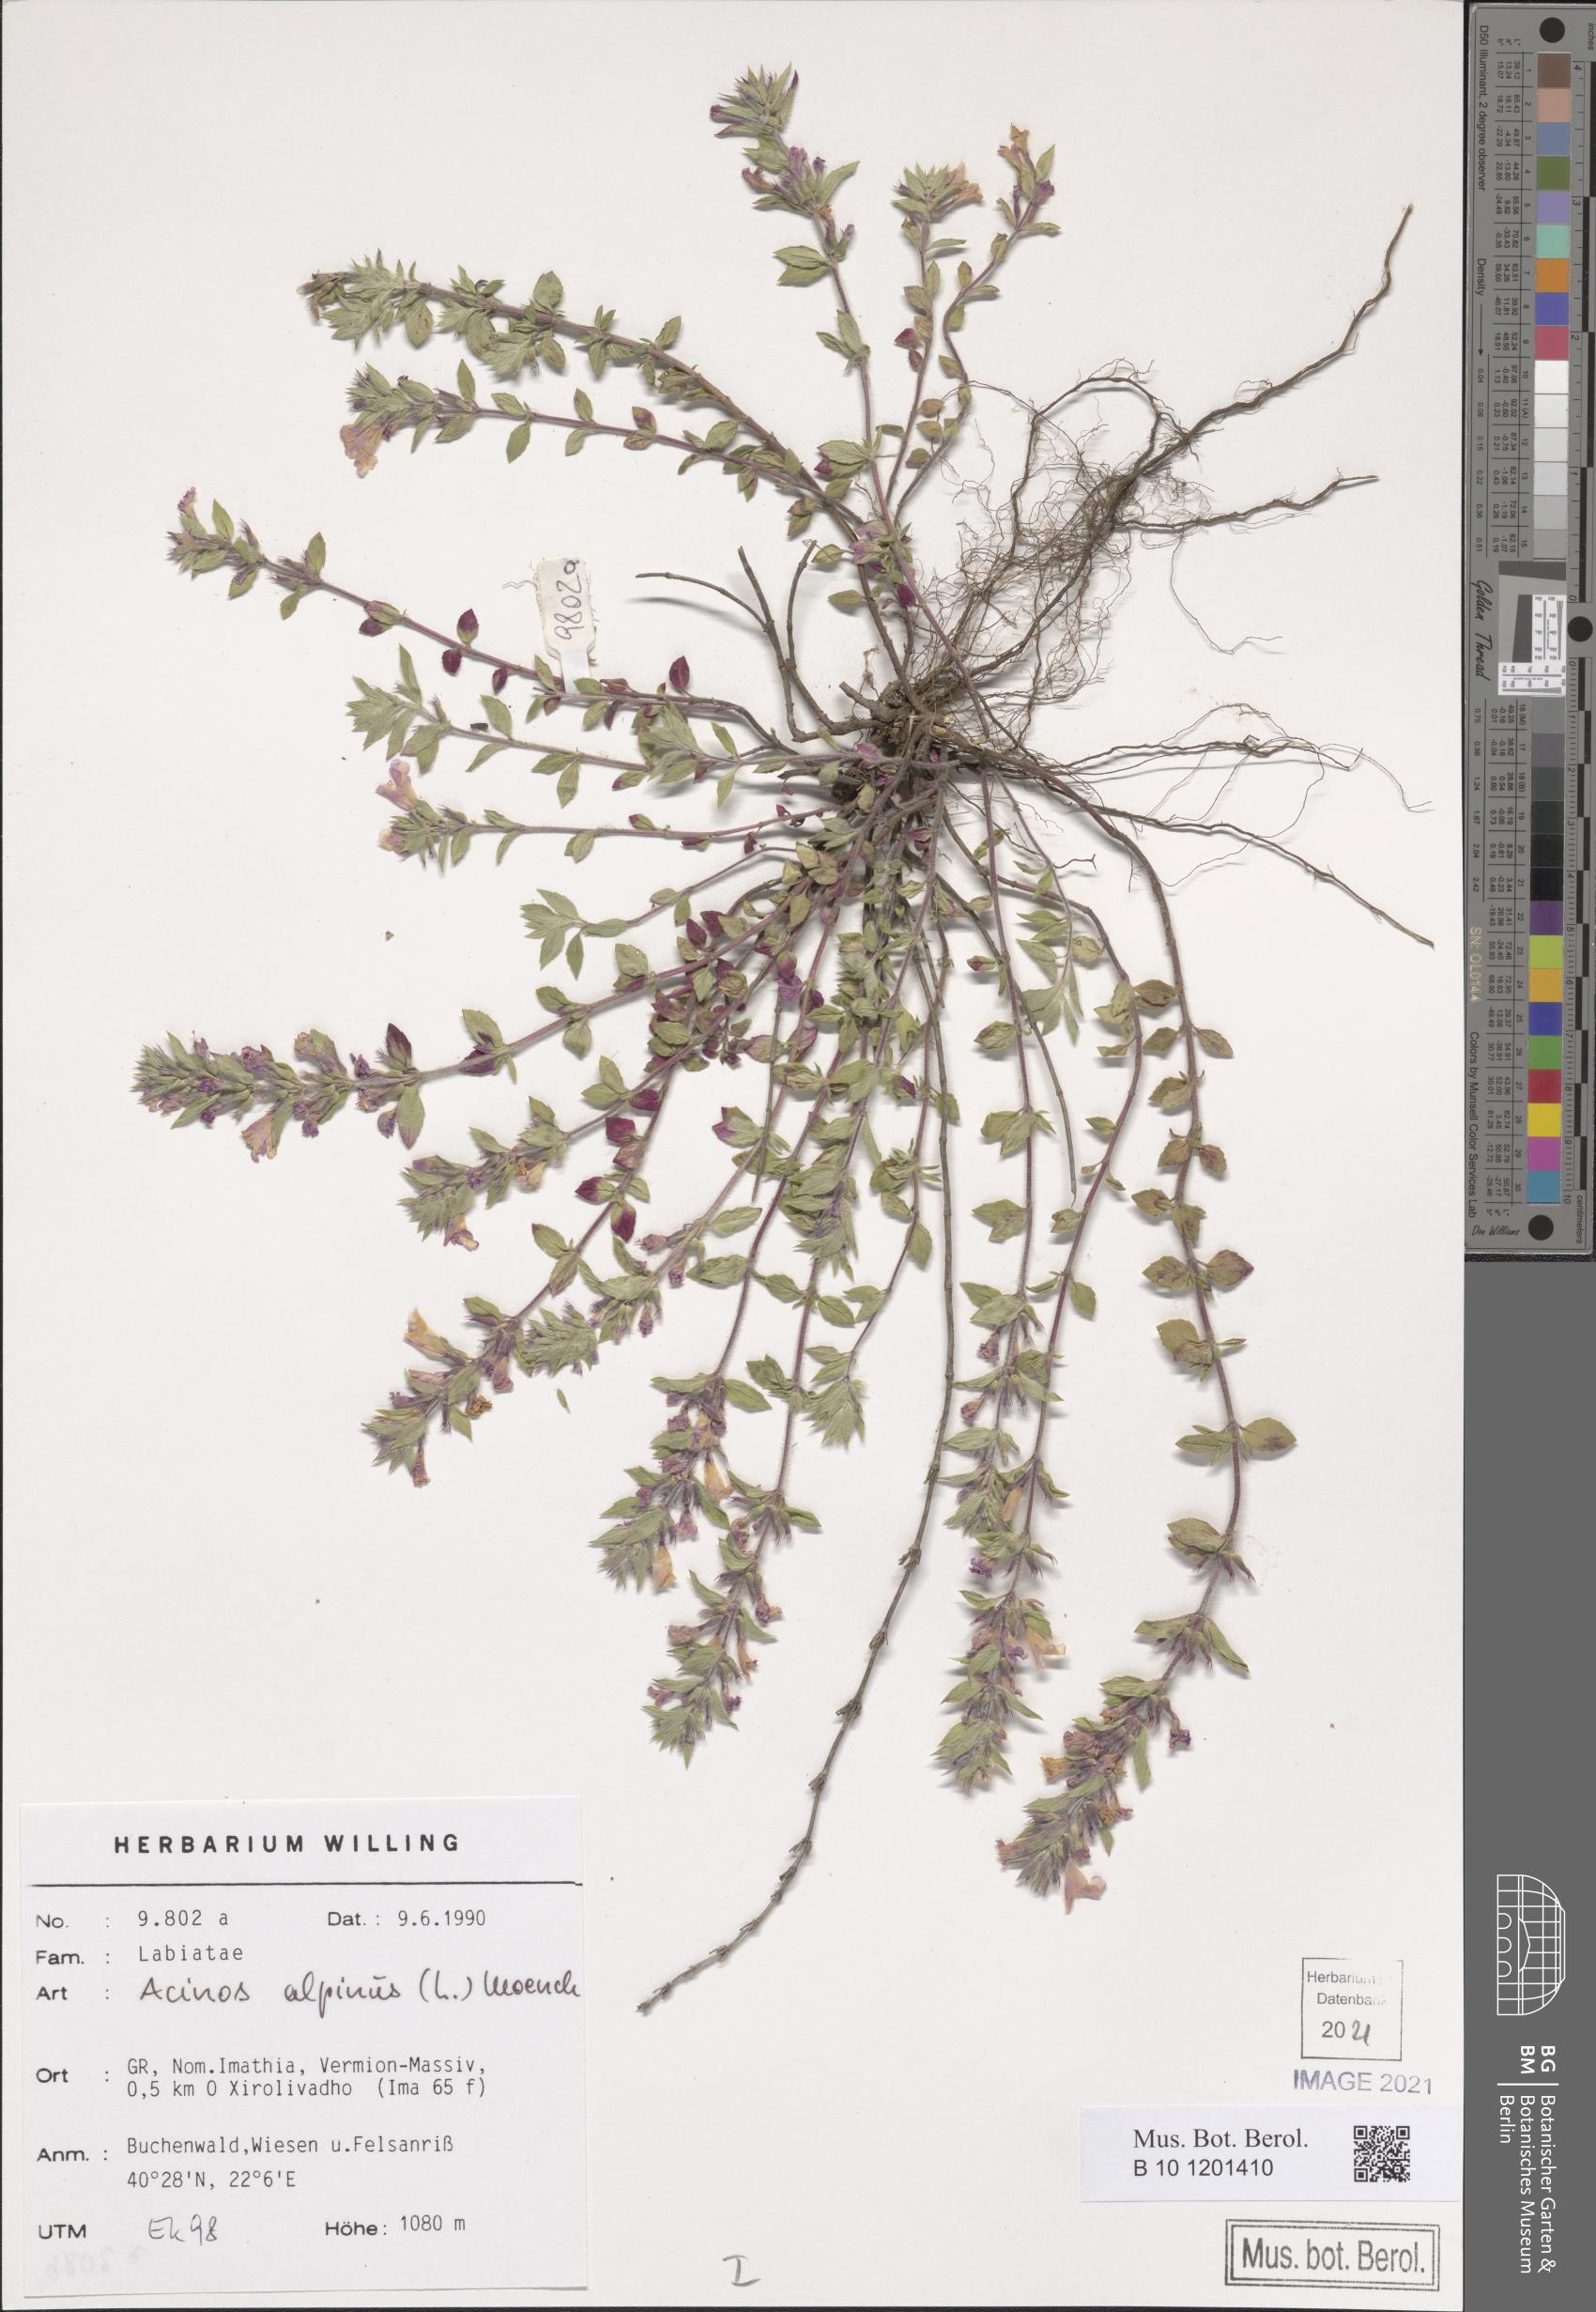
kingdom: Plantae
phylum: Tracheophyta
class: Magnoliopsida
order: Lamiales
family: Lamiaceae
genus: Clinopodium
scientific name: Clinopodium alpinum
